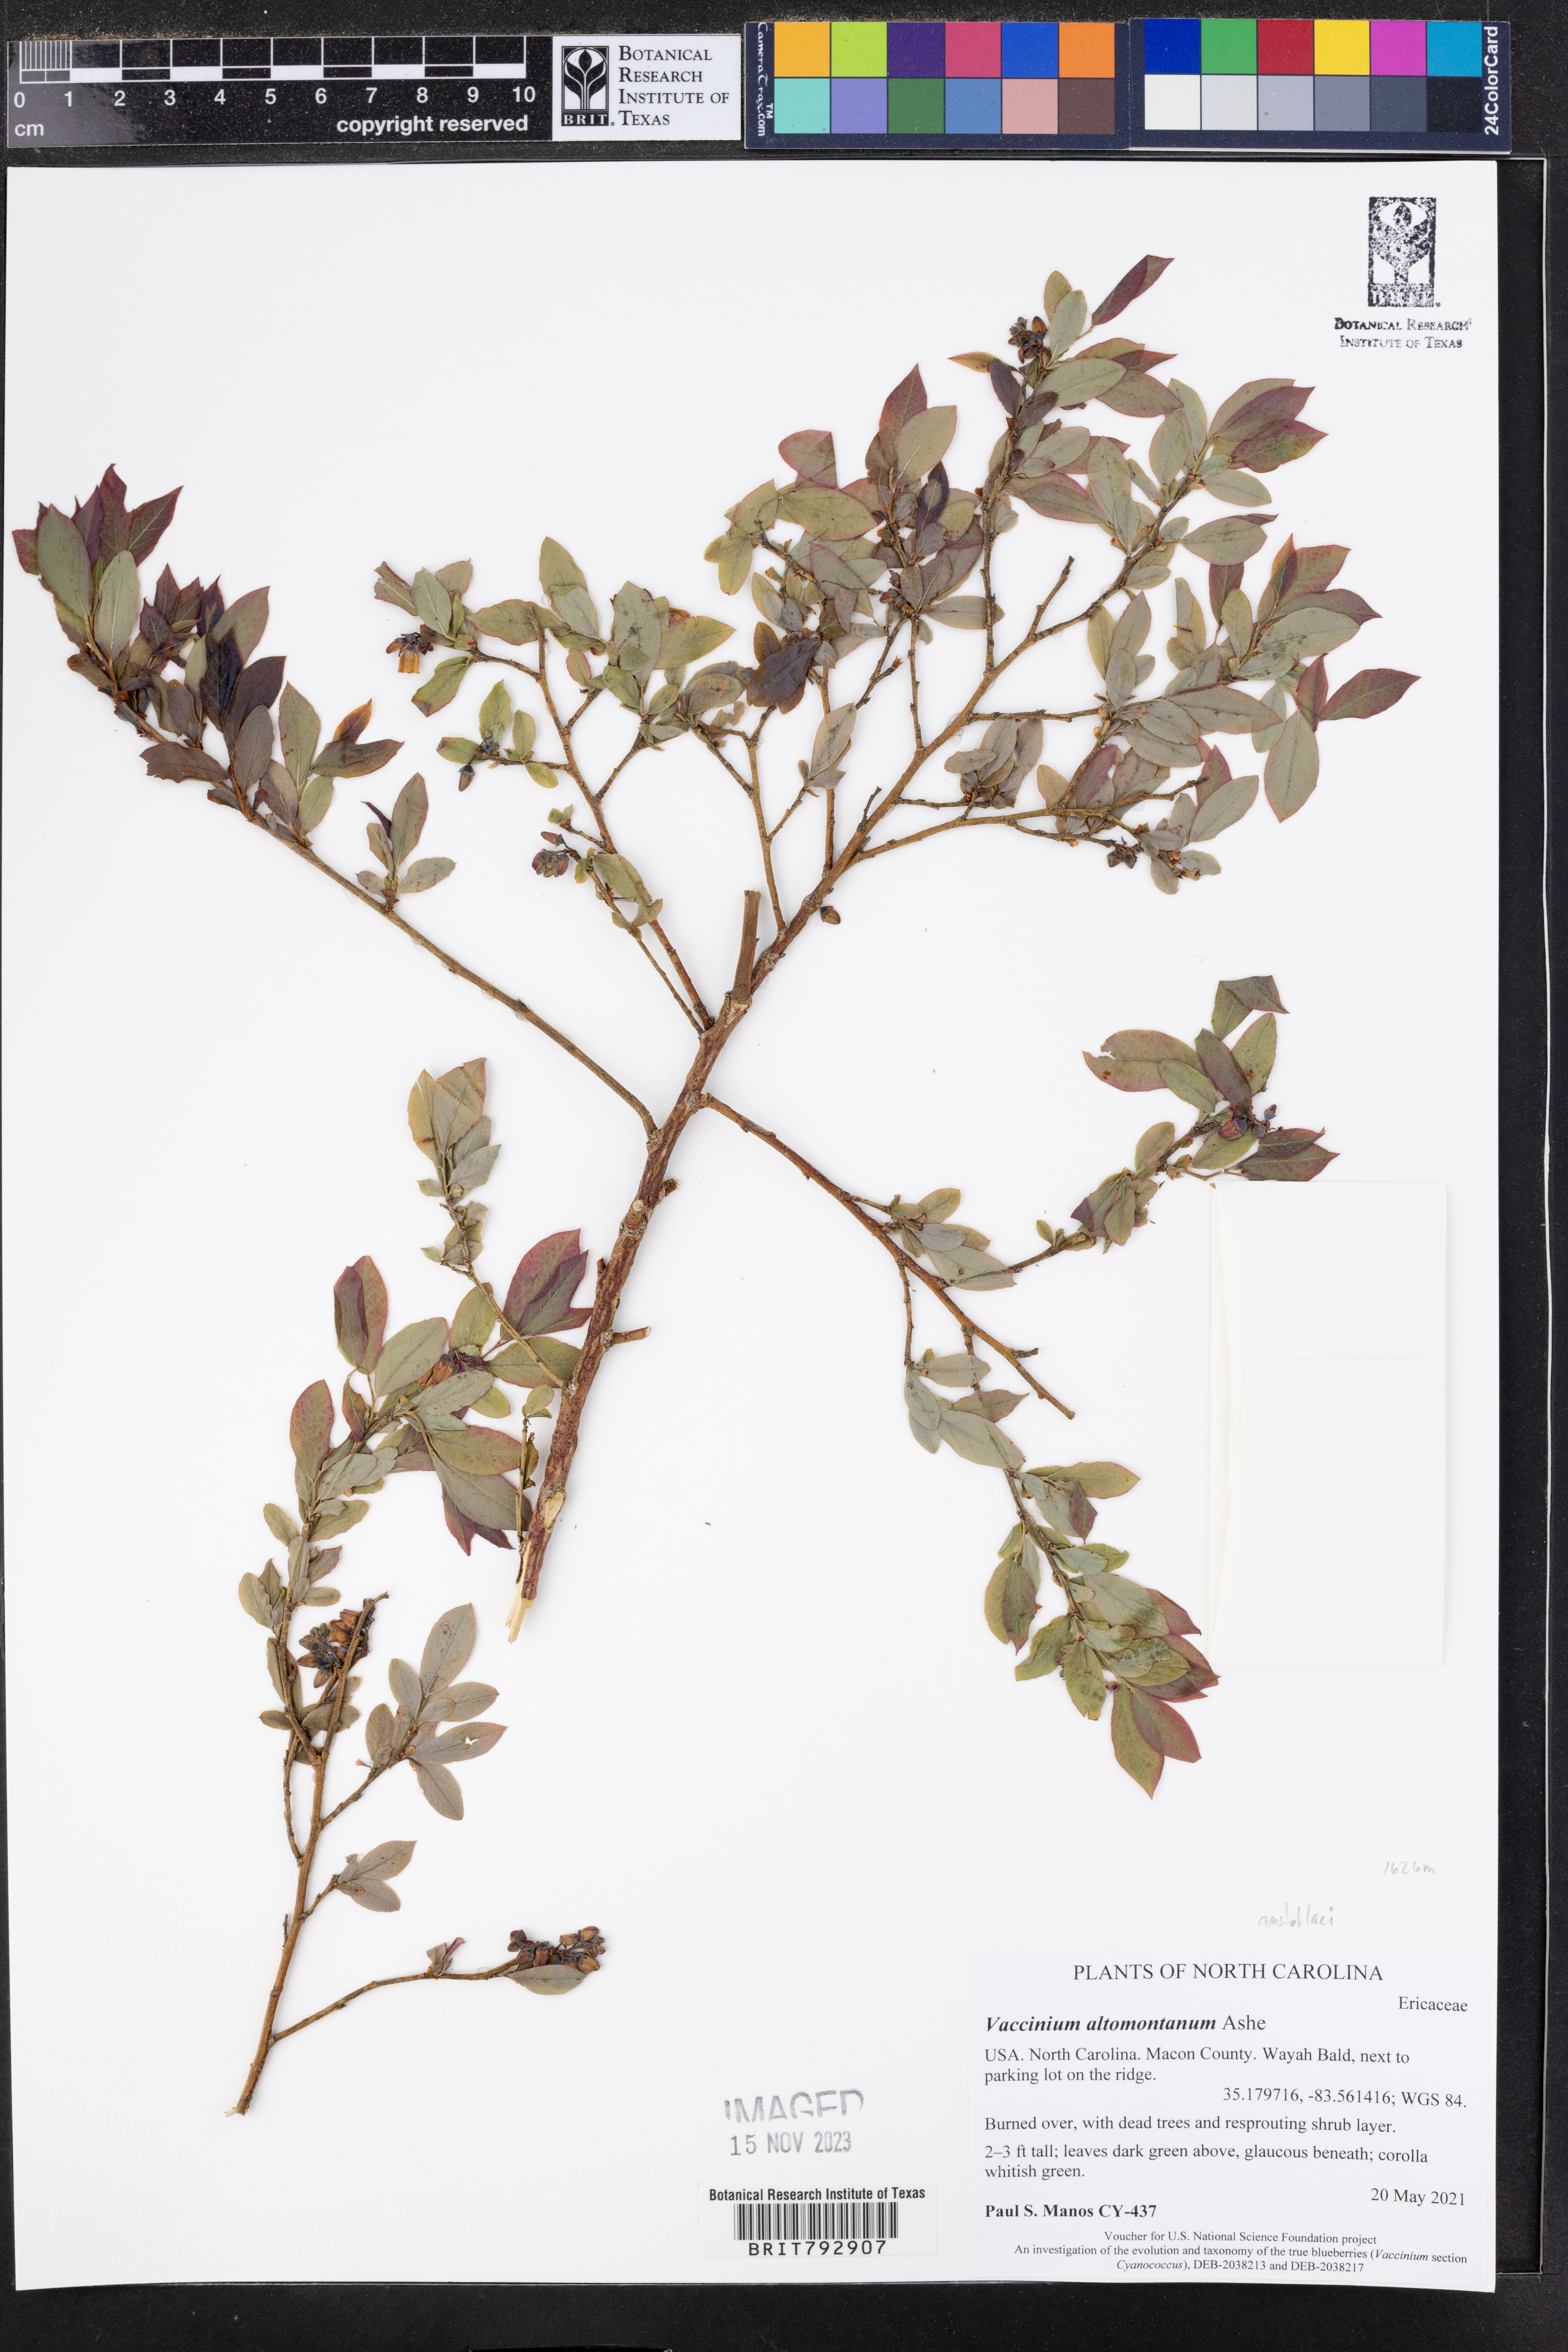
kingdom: Plantae
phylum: Tracheophyta
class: Magnoliopsida
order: Ericales
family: Ericaceae
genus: Vaccinium
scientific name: Vaccinium pallidum
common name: Blue ridge blueberry
